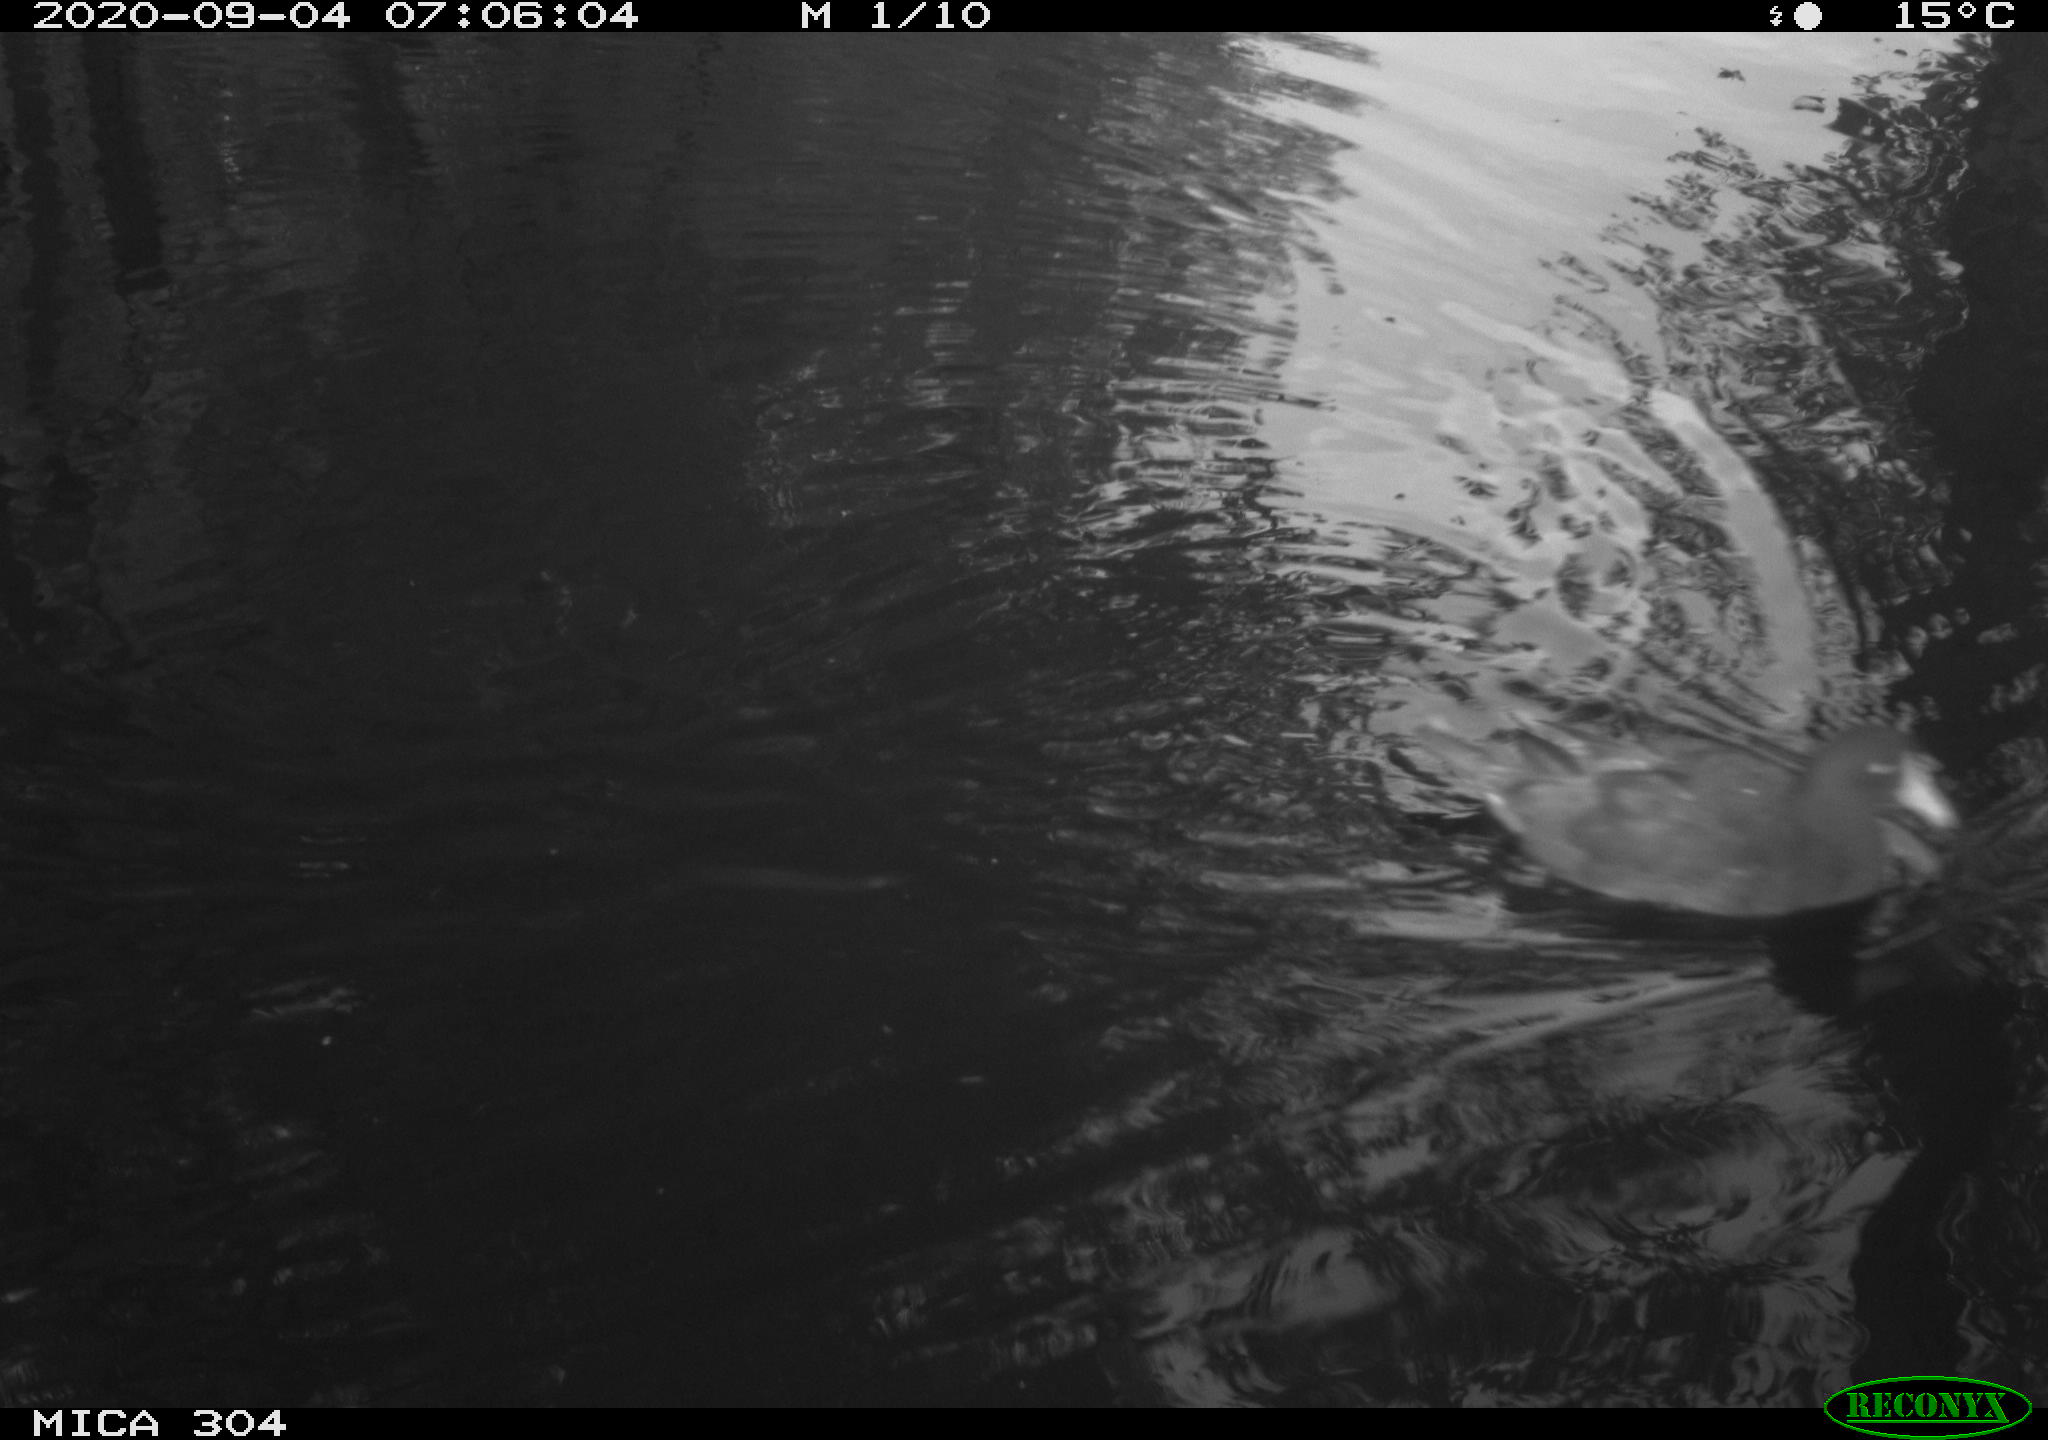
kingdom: Animalia
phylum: Chordata
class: Aves
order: Gruiformes
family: Rallidae
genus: Gallinula
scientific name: Gallinula chloropus
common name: Common moorhen
